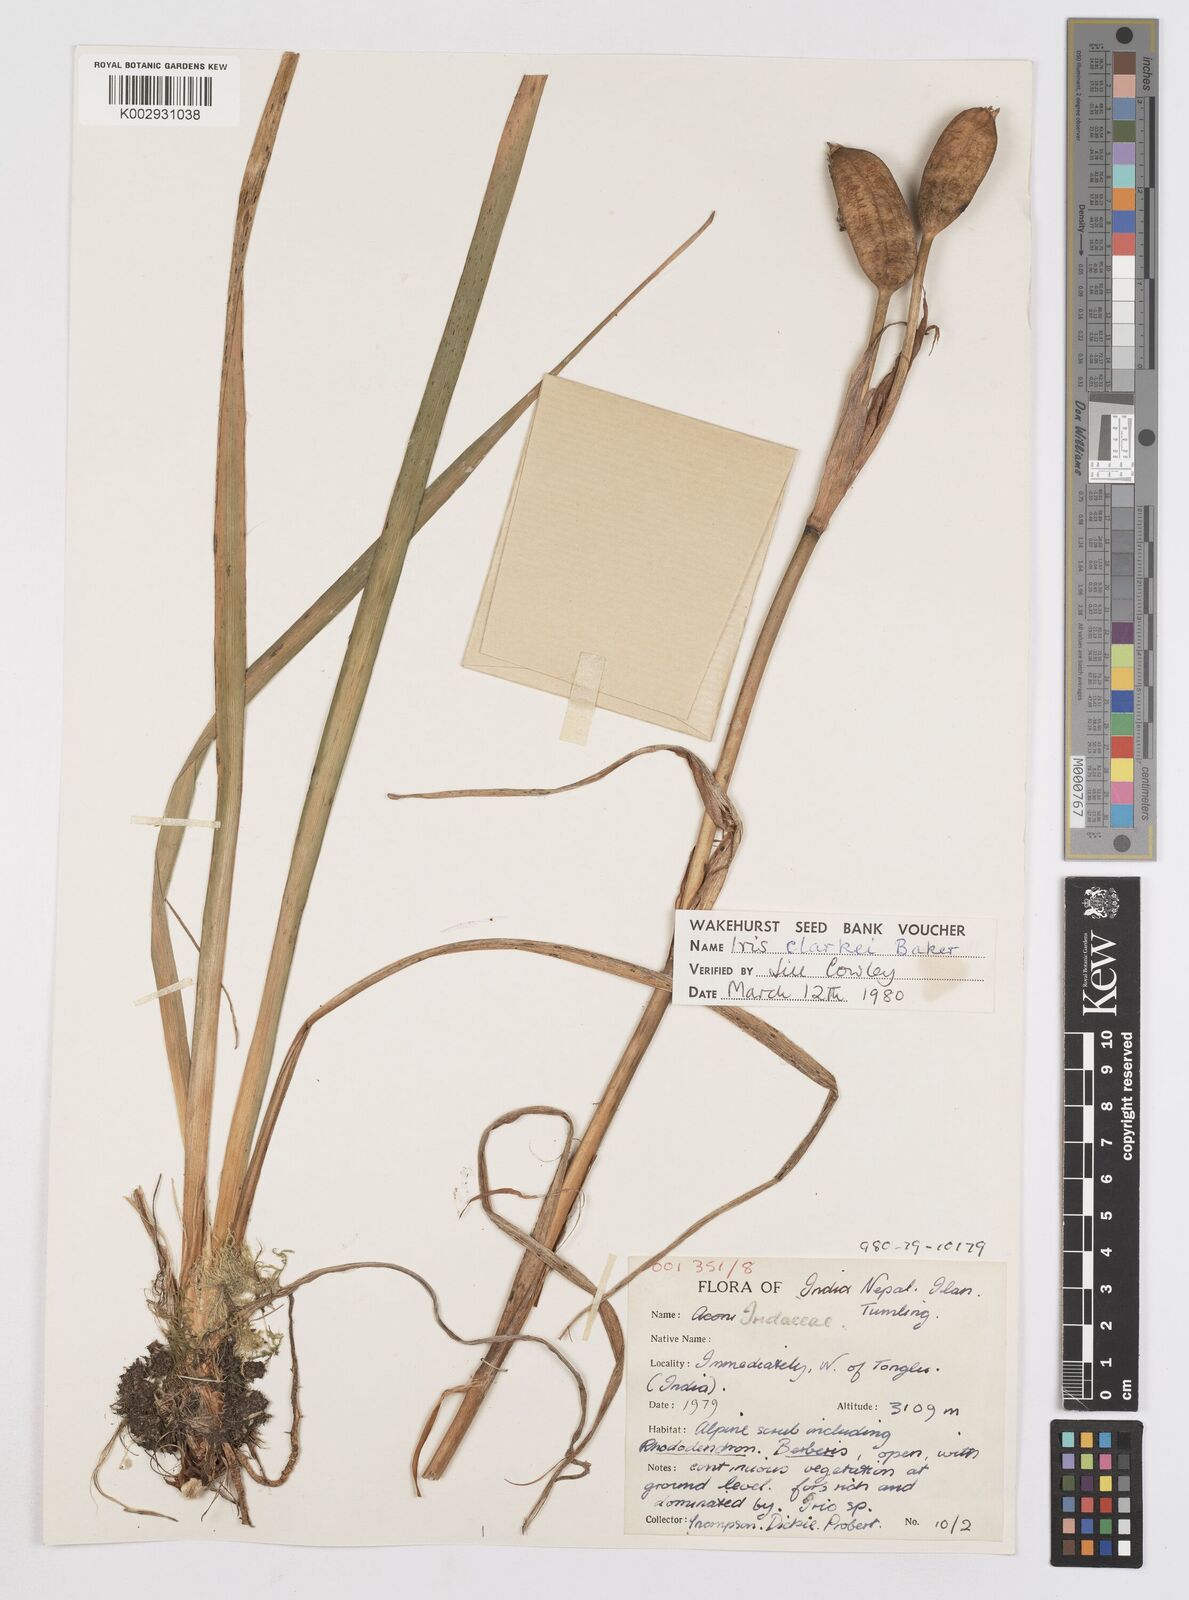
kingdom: Plantae
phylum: Tracheophyta
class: Liliopsida
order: Asparagales
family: Iridaceae
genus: Iris
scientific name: Iris clarkei
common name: Tibet iris
